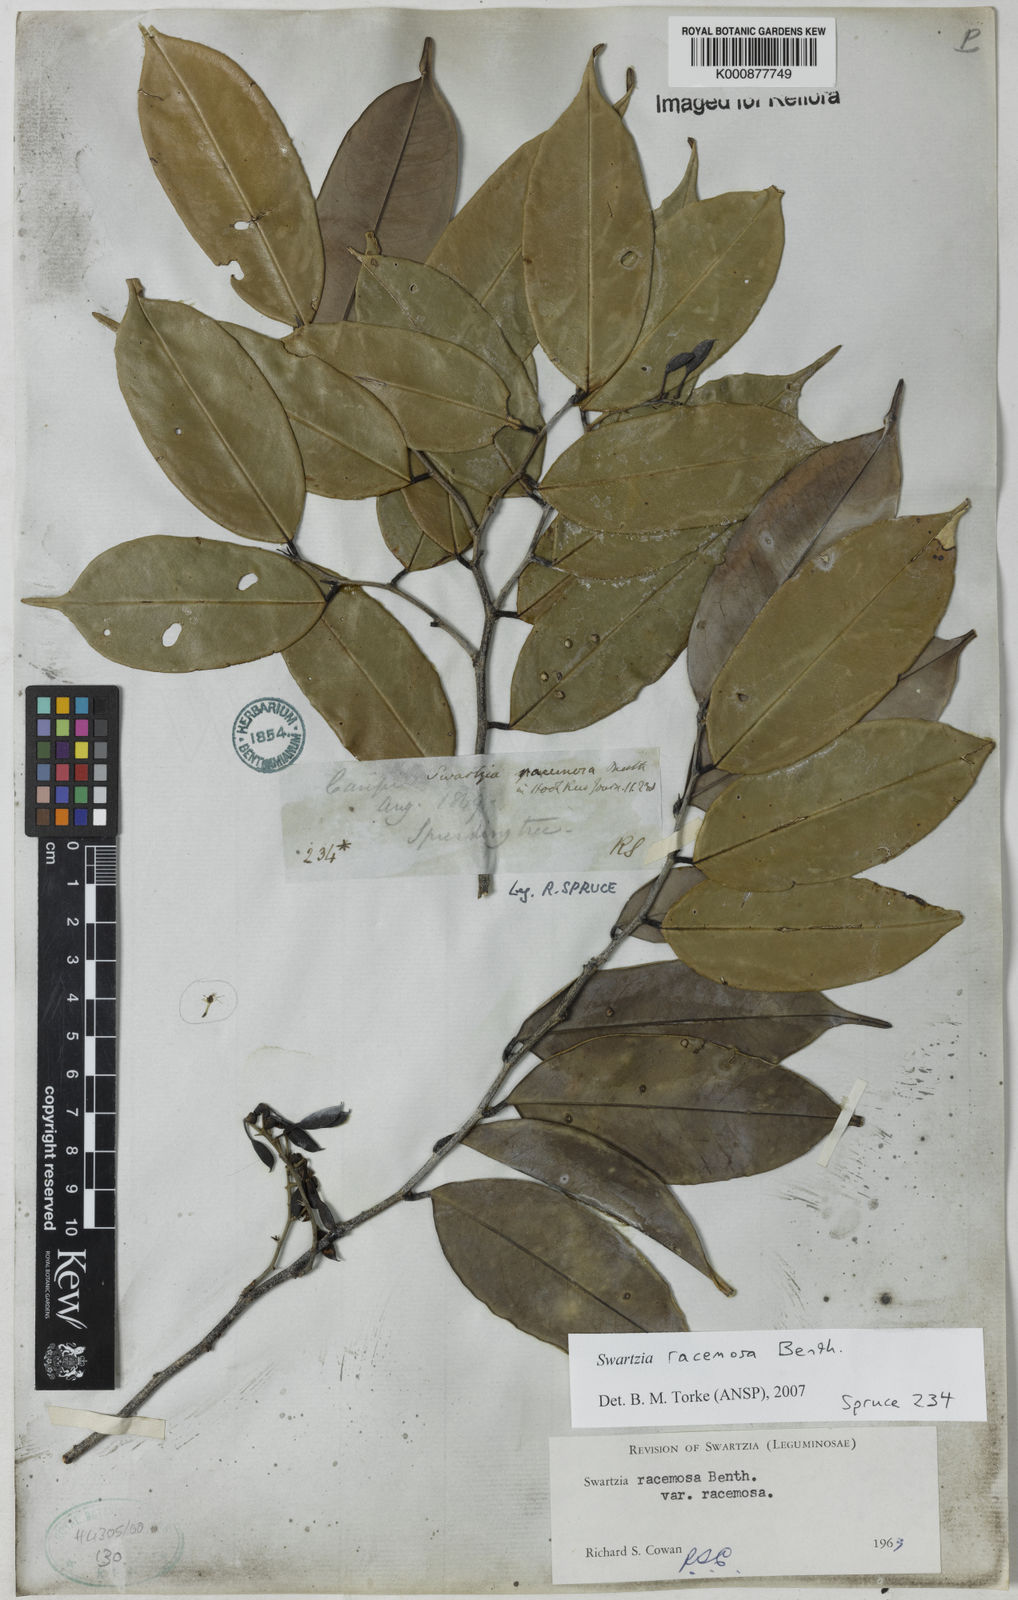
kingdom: Plantae
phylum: Tracheophyta
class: Magnoliopsida
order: Fabales
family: Fabaceae
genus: Swartzia
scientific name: Swartzia racemosa
